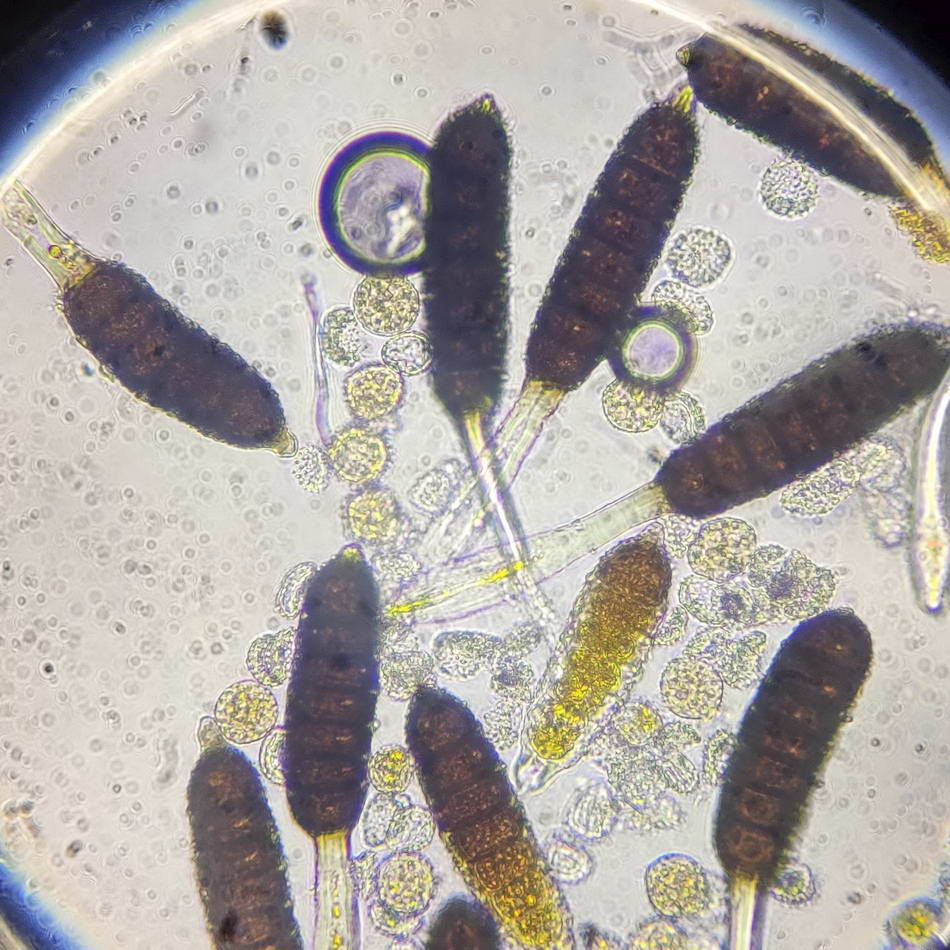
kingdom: Fungi
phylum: Basidiomycota
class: Pucciniomycetes
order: Pucciniales
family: Phragmidiaceae
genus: Phragmidium
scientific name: Phragmidium rubi-idaei
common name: hindbær-flercellerust
